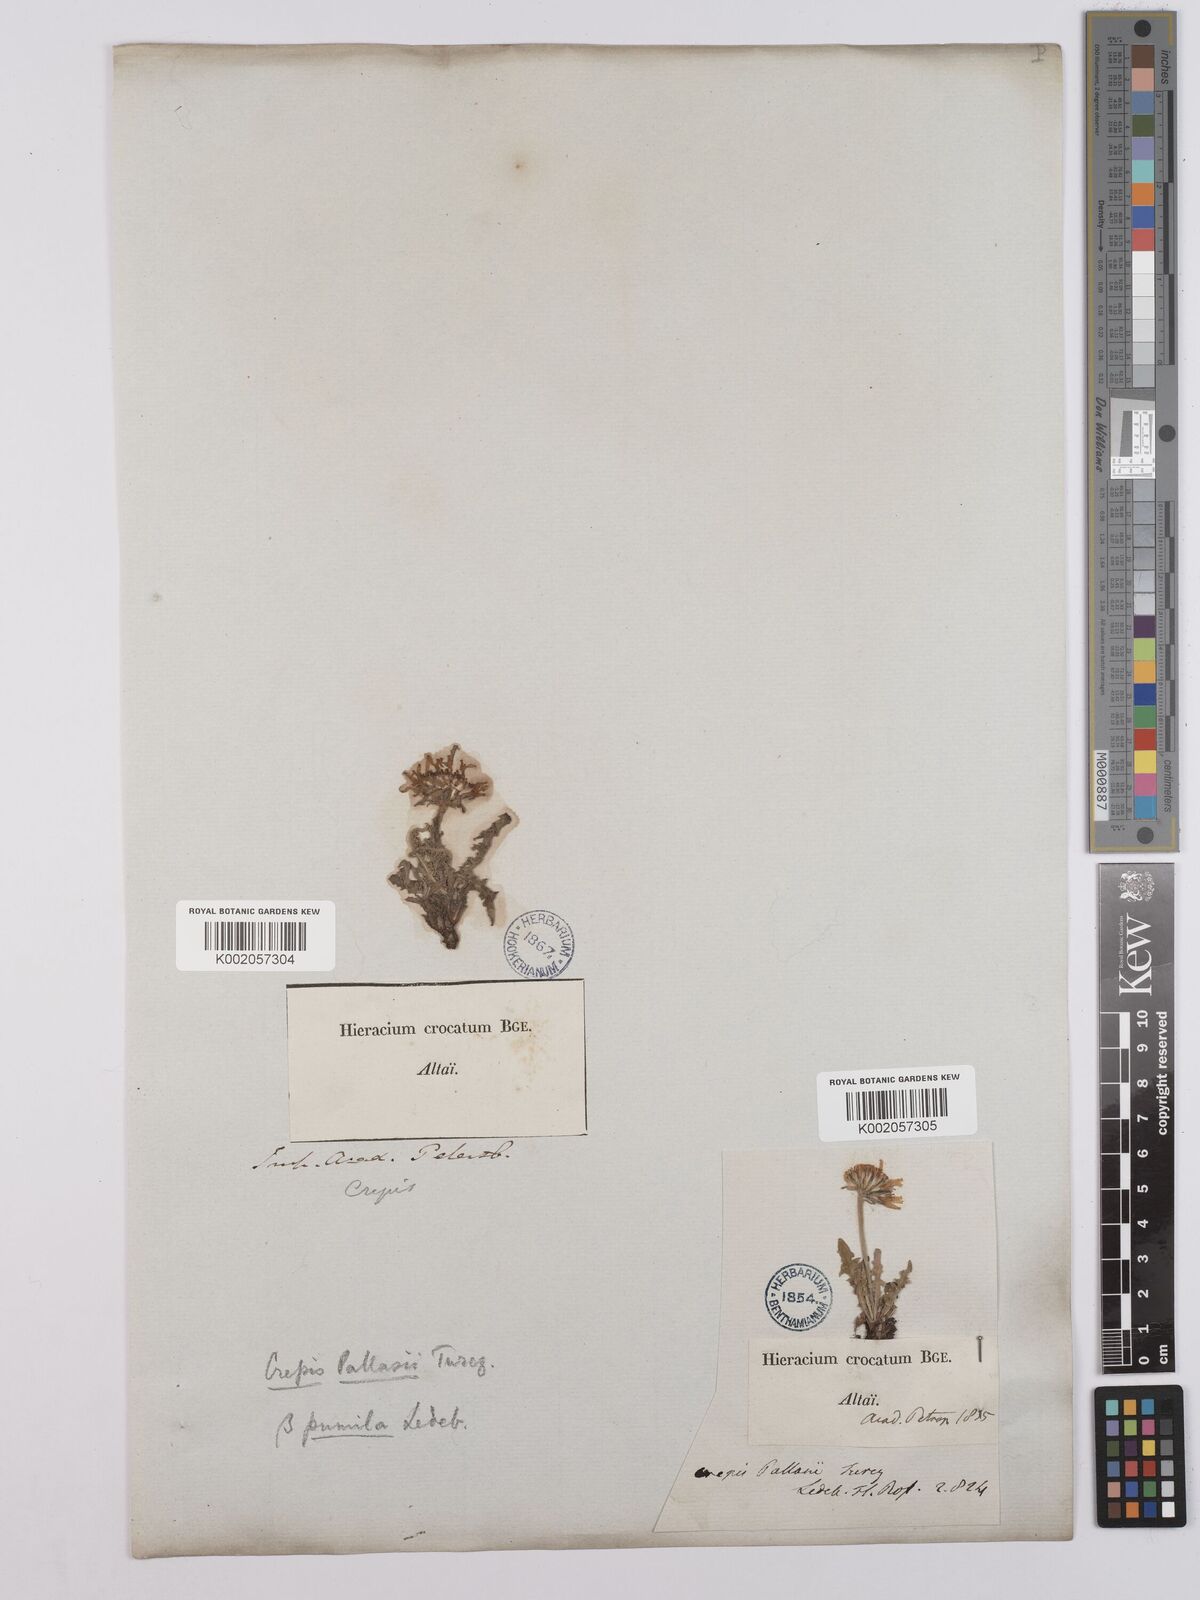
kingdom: Plantae
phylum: Tracheophyta
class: Magnoliopsida
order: Asterales
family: Asteraceae
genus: Crepis
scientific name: Crepis crocea
